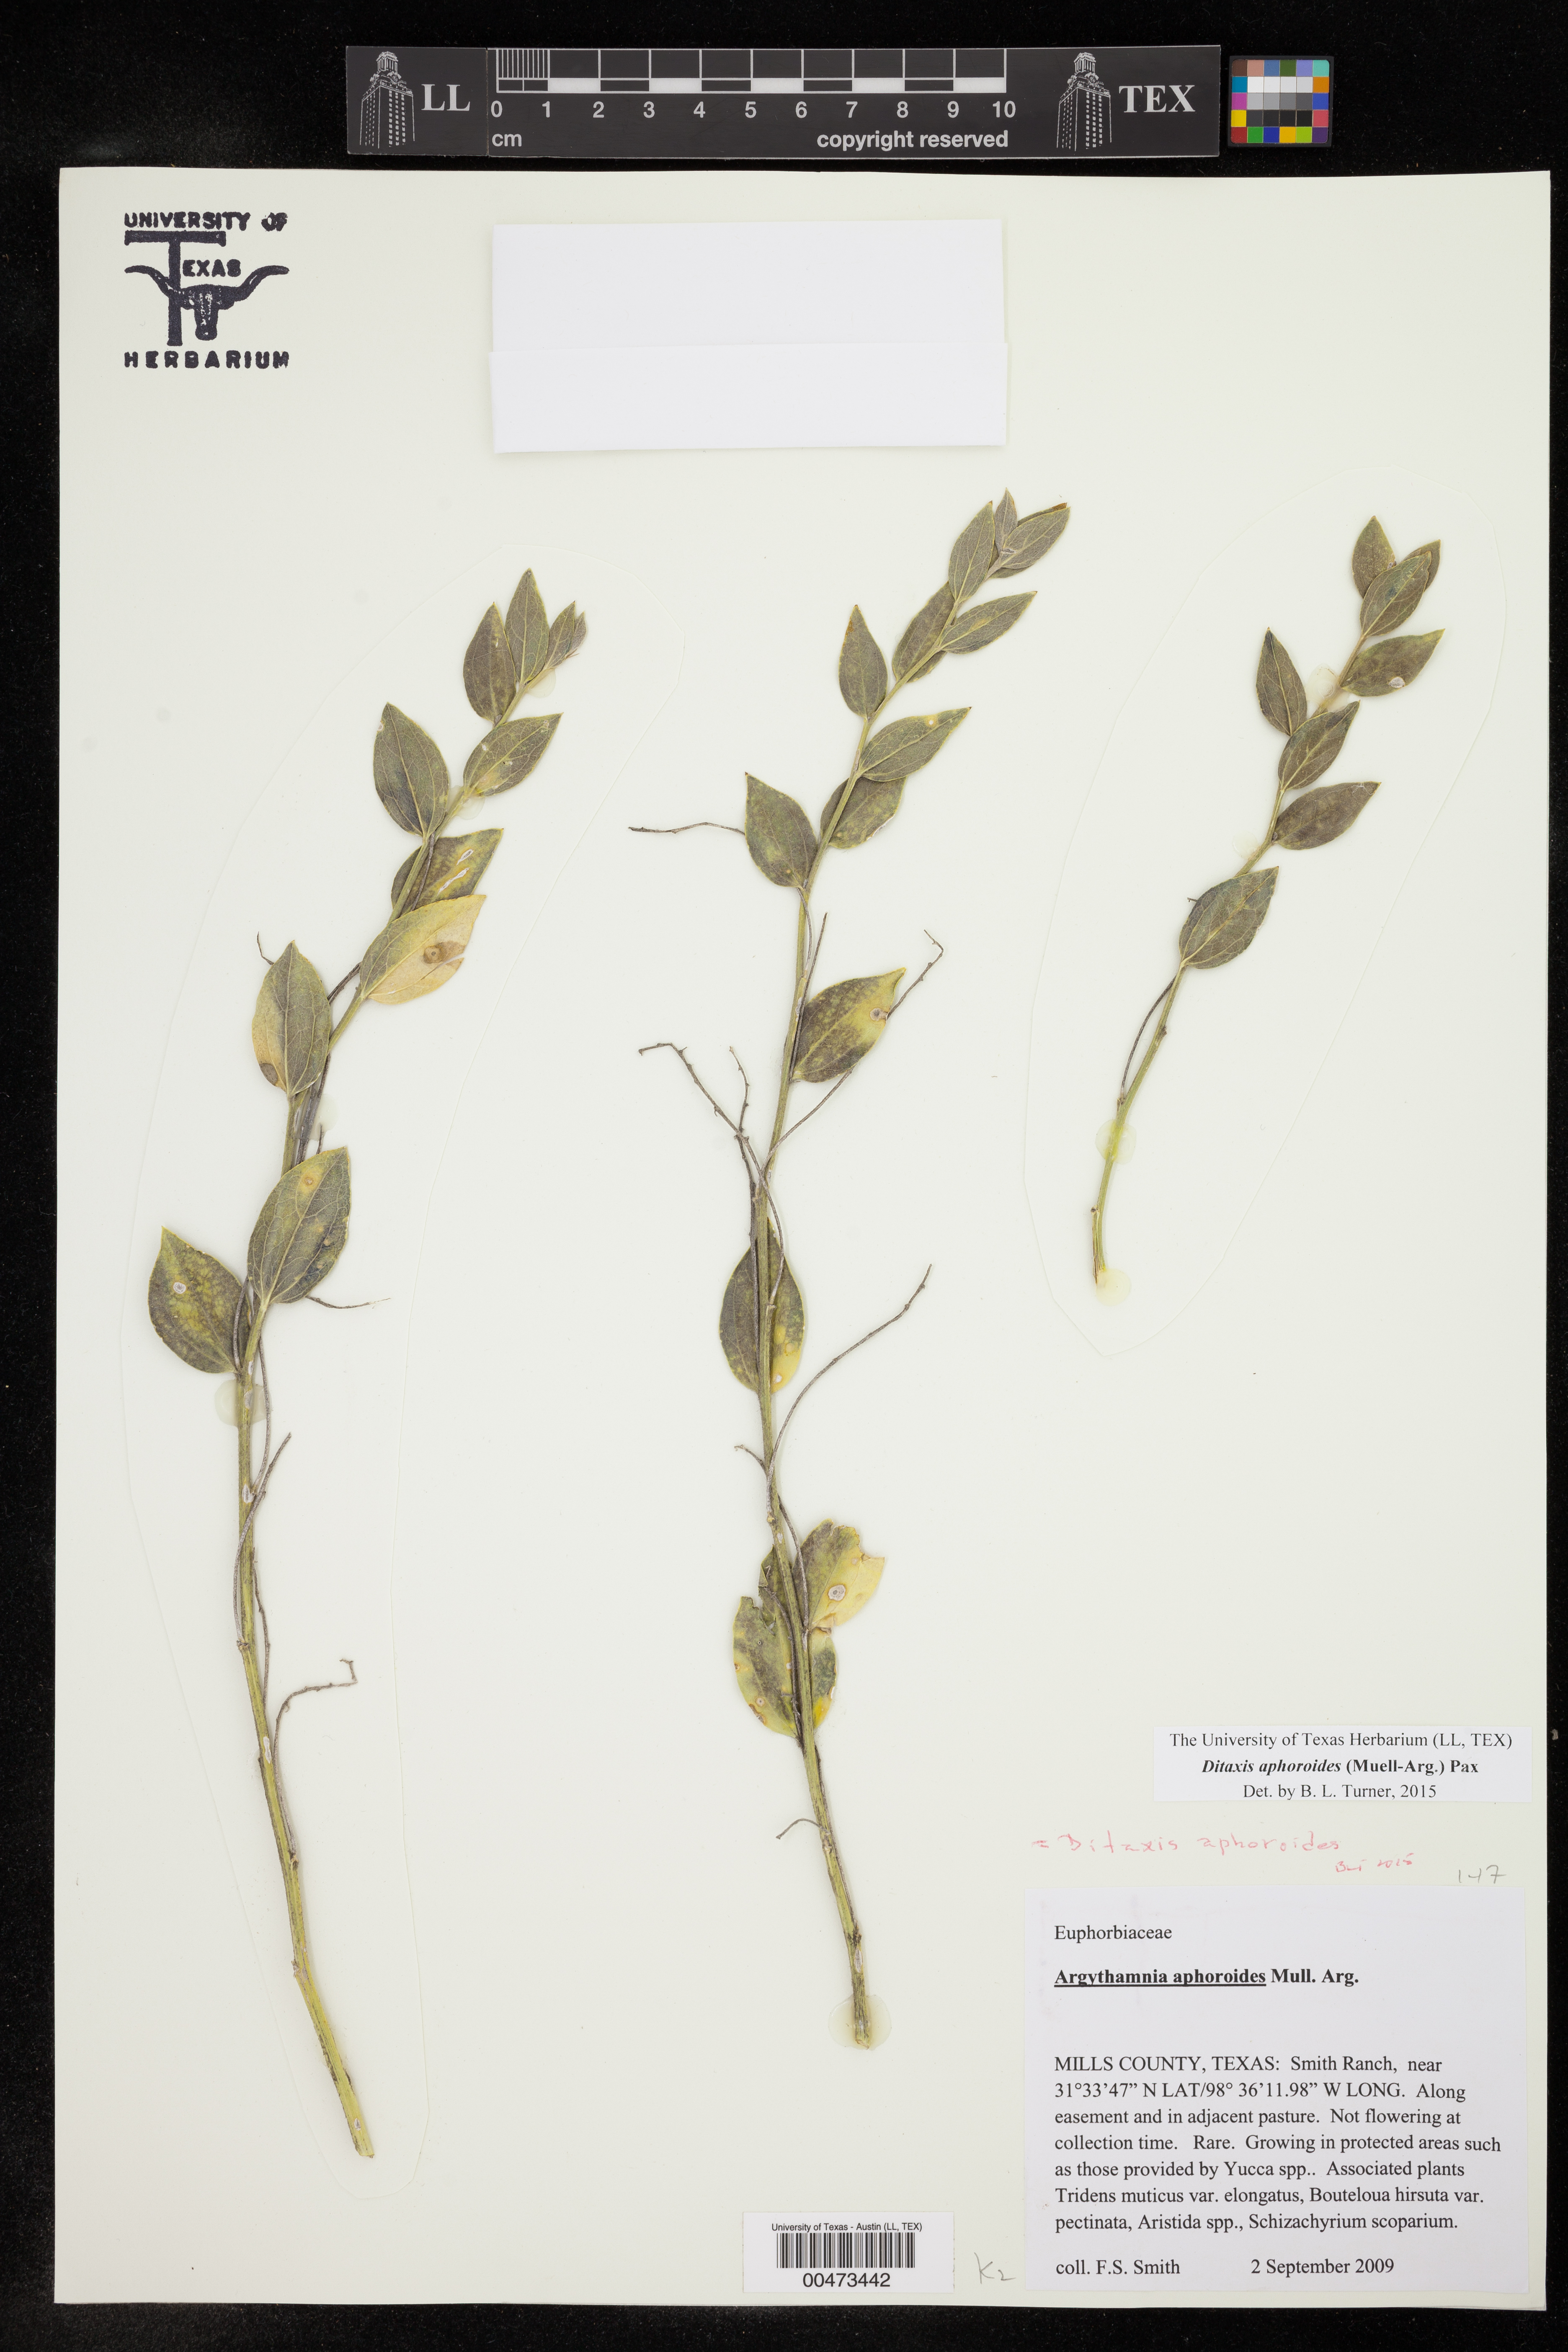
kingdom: Plantae
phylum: Tracheophyta
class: Magnoliopsida
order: Malpighiales
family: Euphorbiaceae
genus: Ditaxis
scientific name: Ditaxis aphoroides
